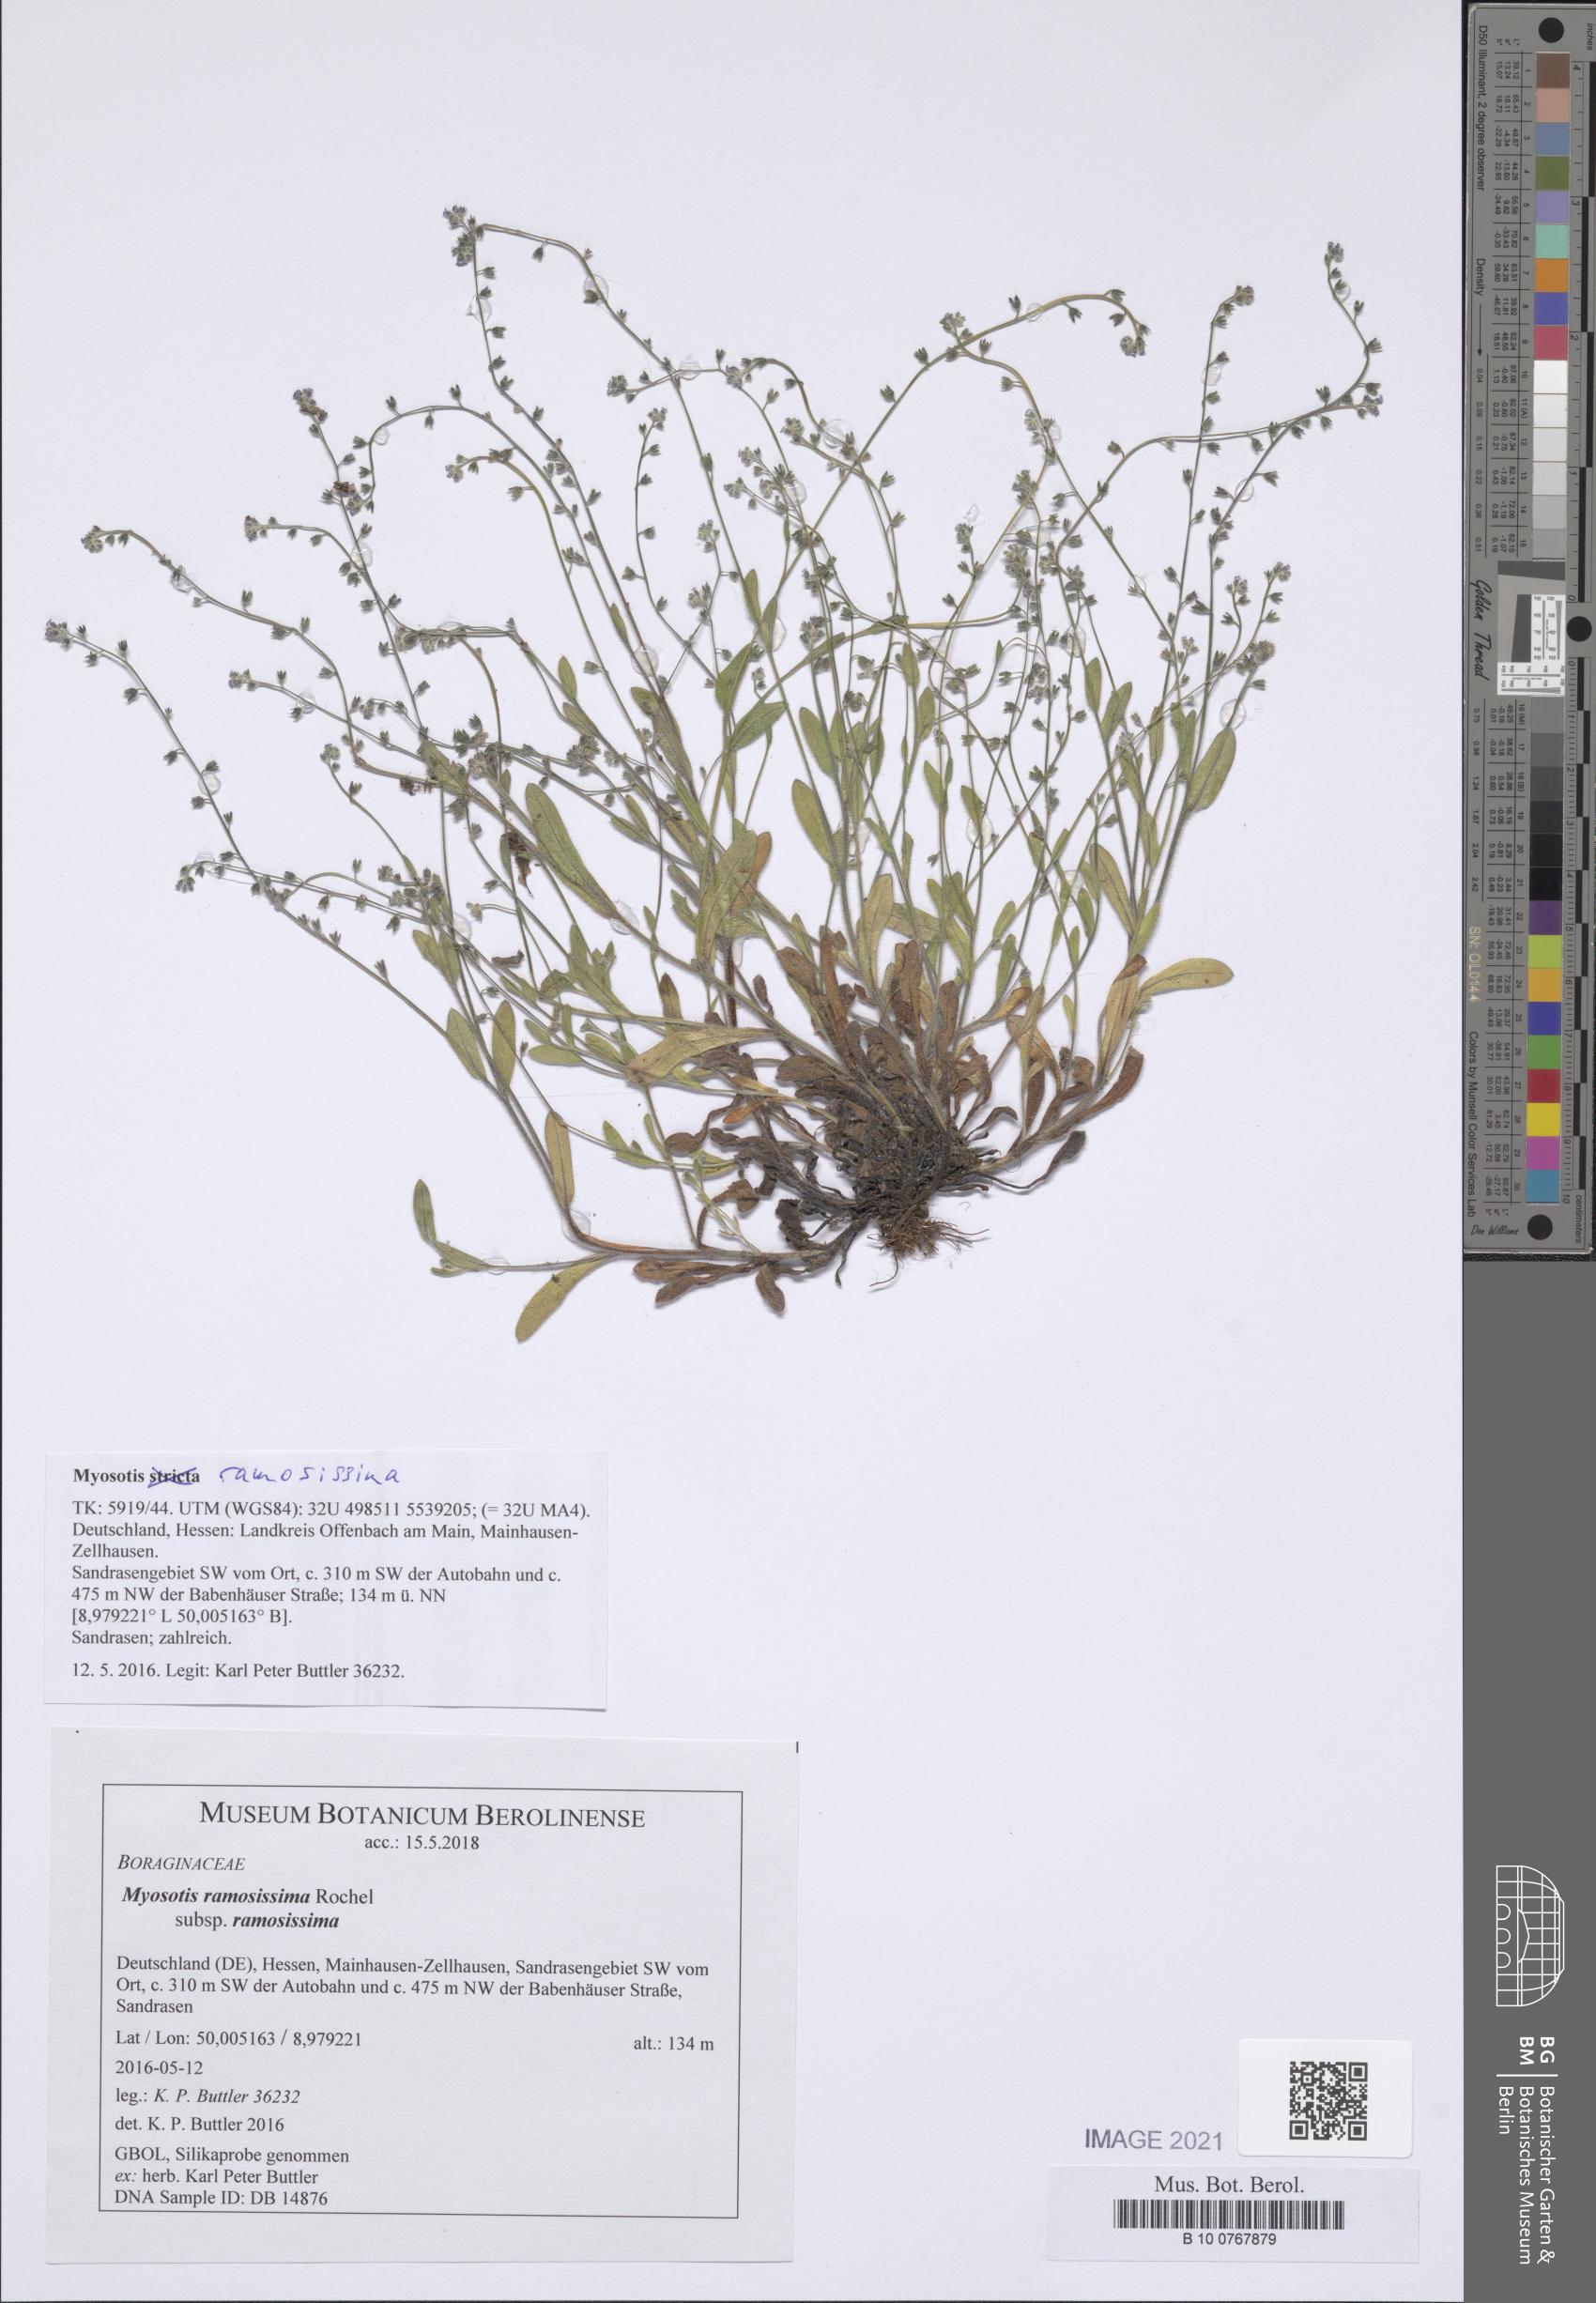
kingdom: Plantae
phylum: Tracheophyta
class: Magnoliopsida
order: Boraginales
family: Boraginaceae
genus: Myosotis
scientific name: Myosotis ramosissima
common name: Early forget-me-not
